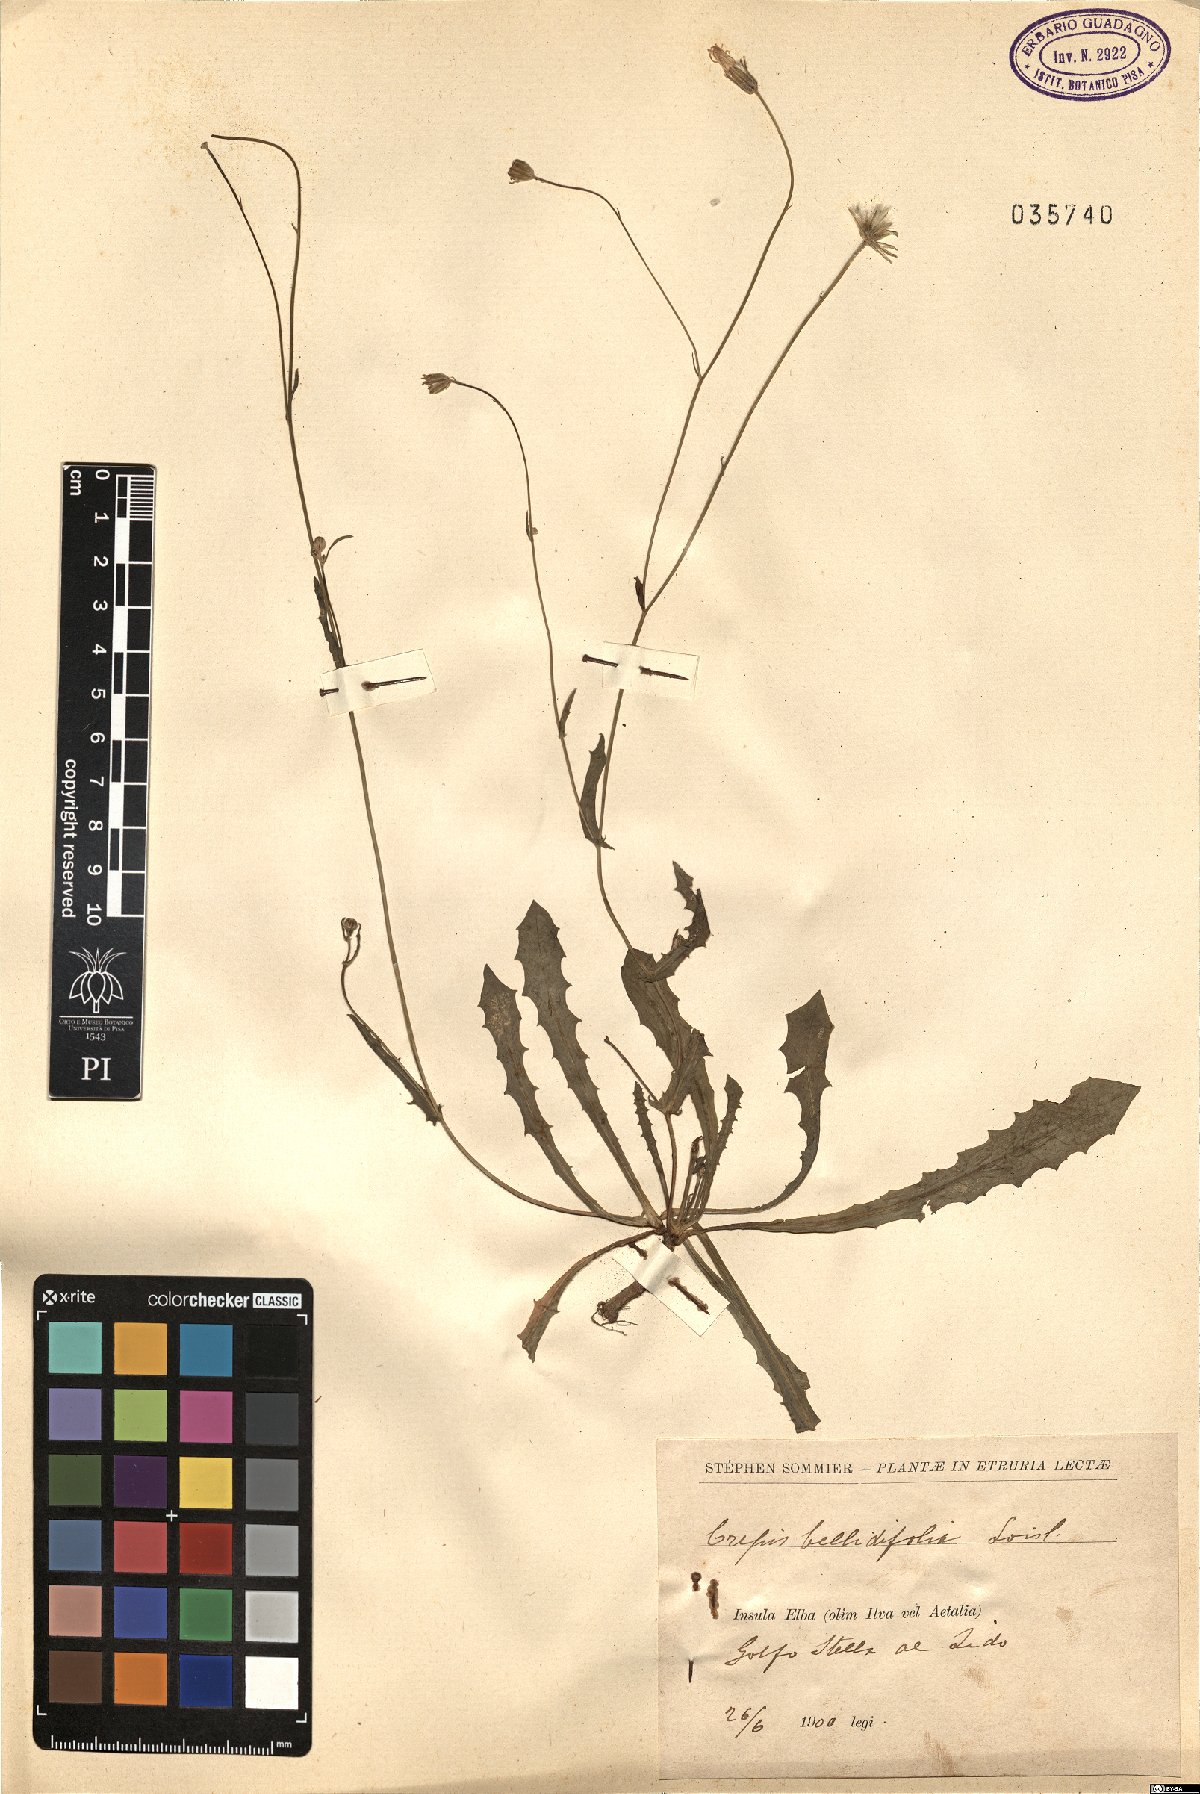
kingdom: Plantae
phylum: Tracheophyta
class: Magnoliopsida
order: Asterales
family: Asteraceae
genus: Crepis
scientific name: Crepis bellidifolia
